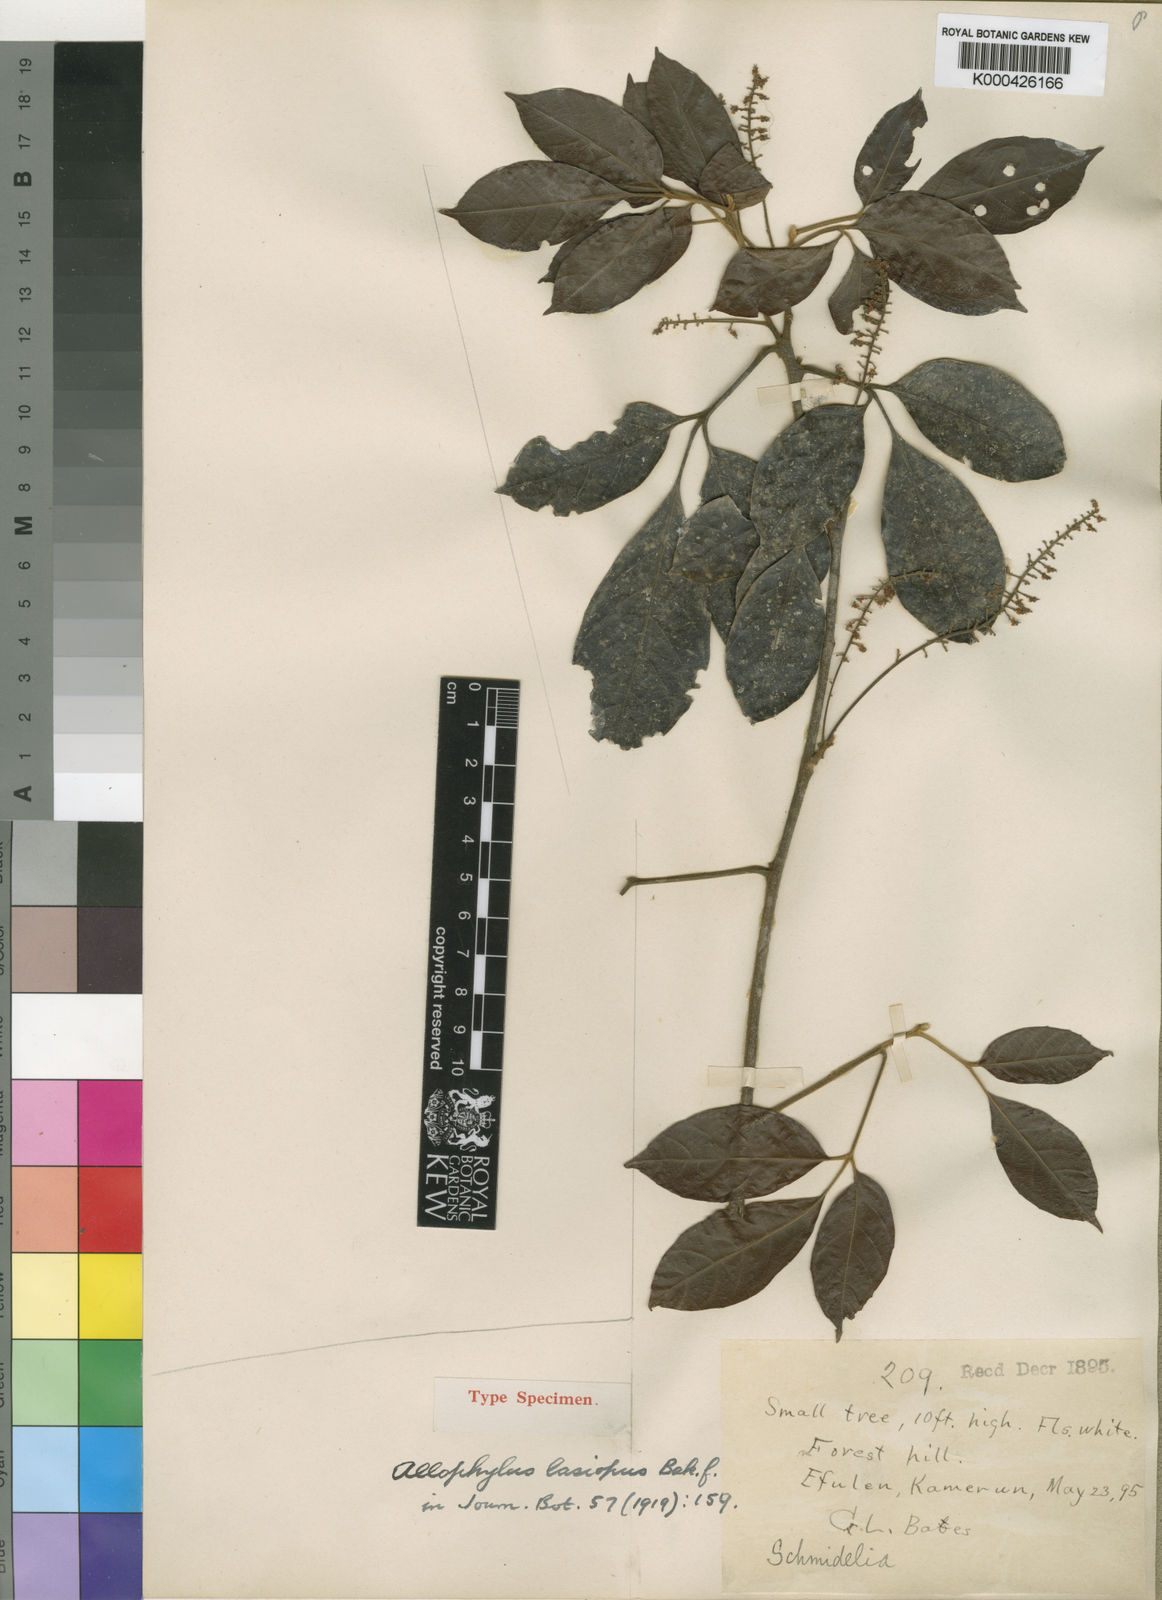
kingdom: Plantae
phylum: Tracheophyta
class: Magnoliopsida
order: Sapindales
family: Sapindaceae
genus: Allophylus
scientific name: Allophylus lasiopus
